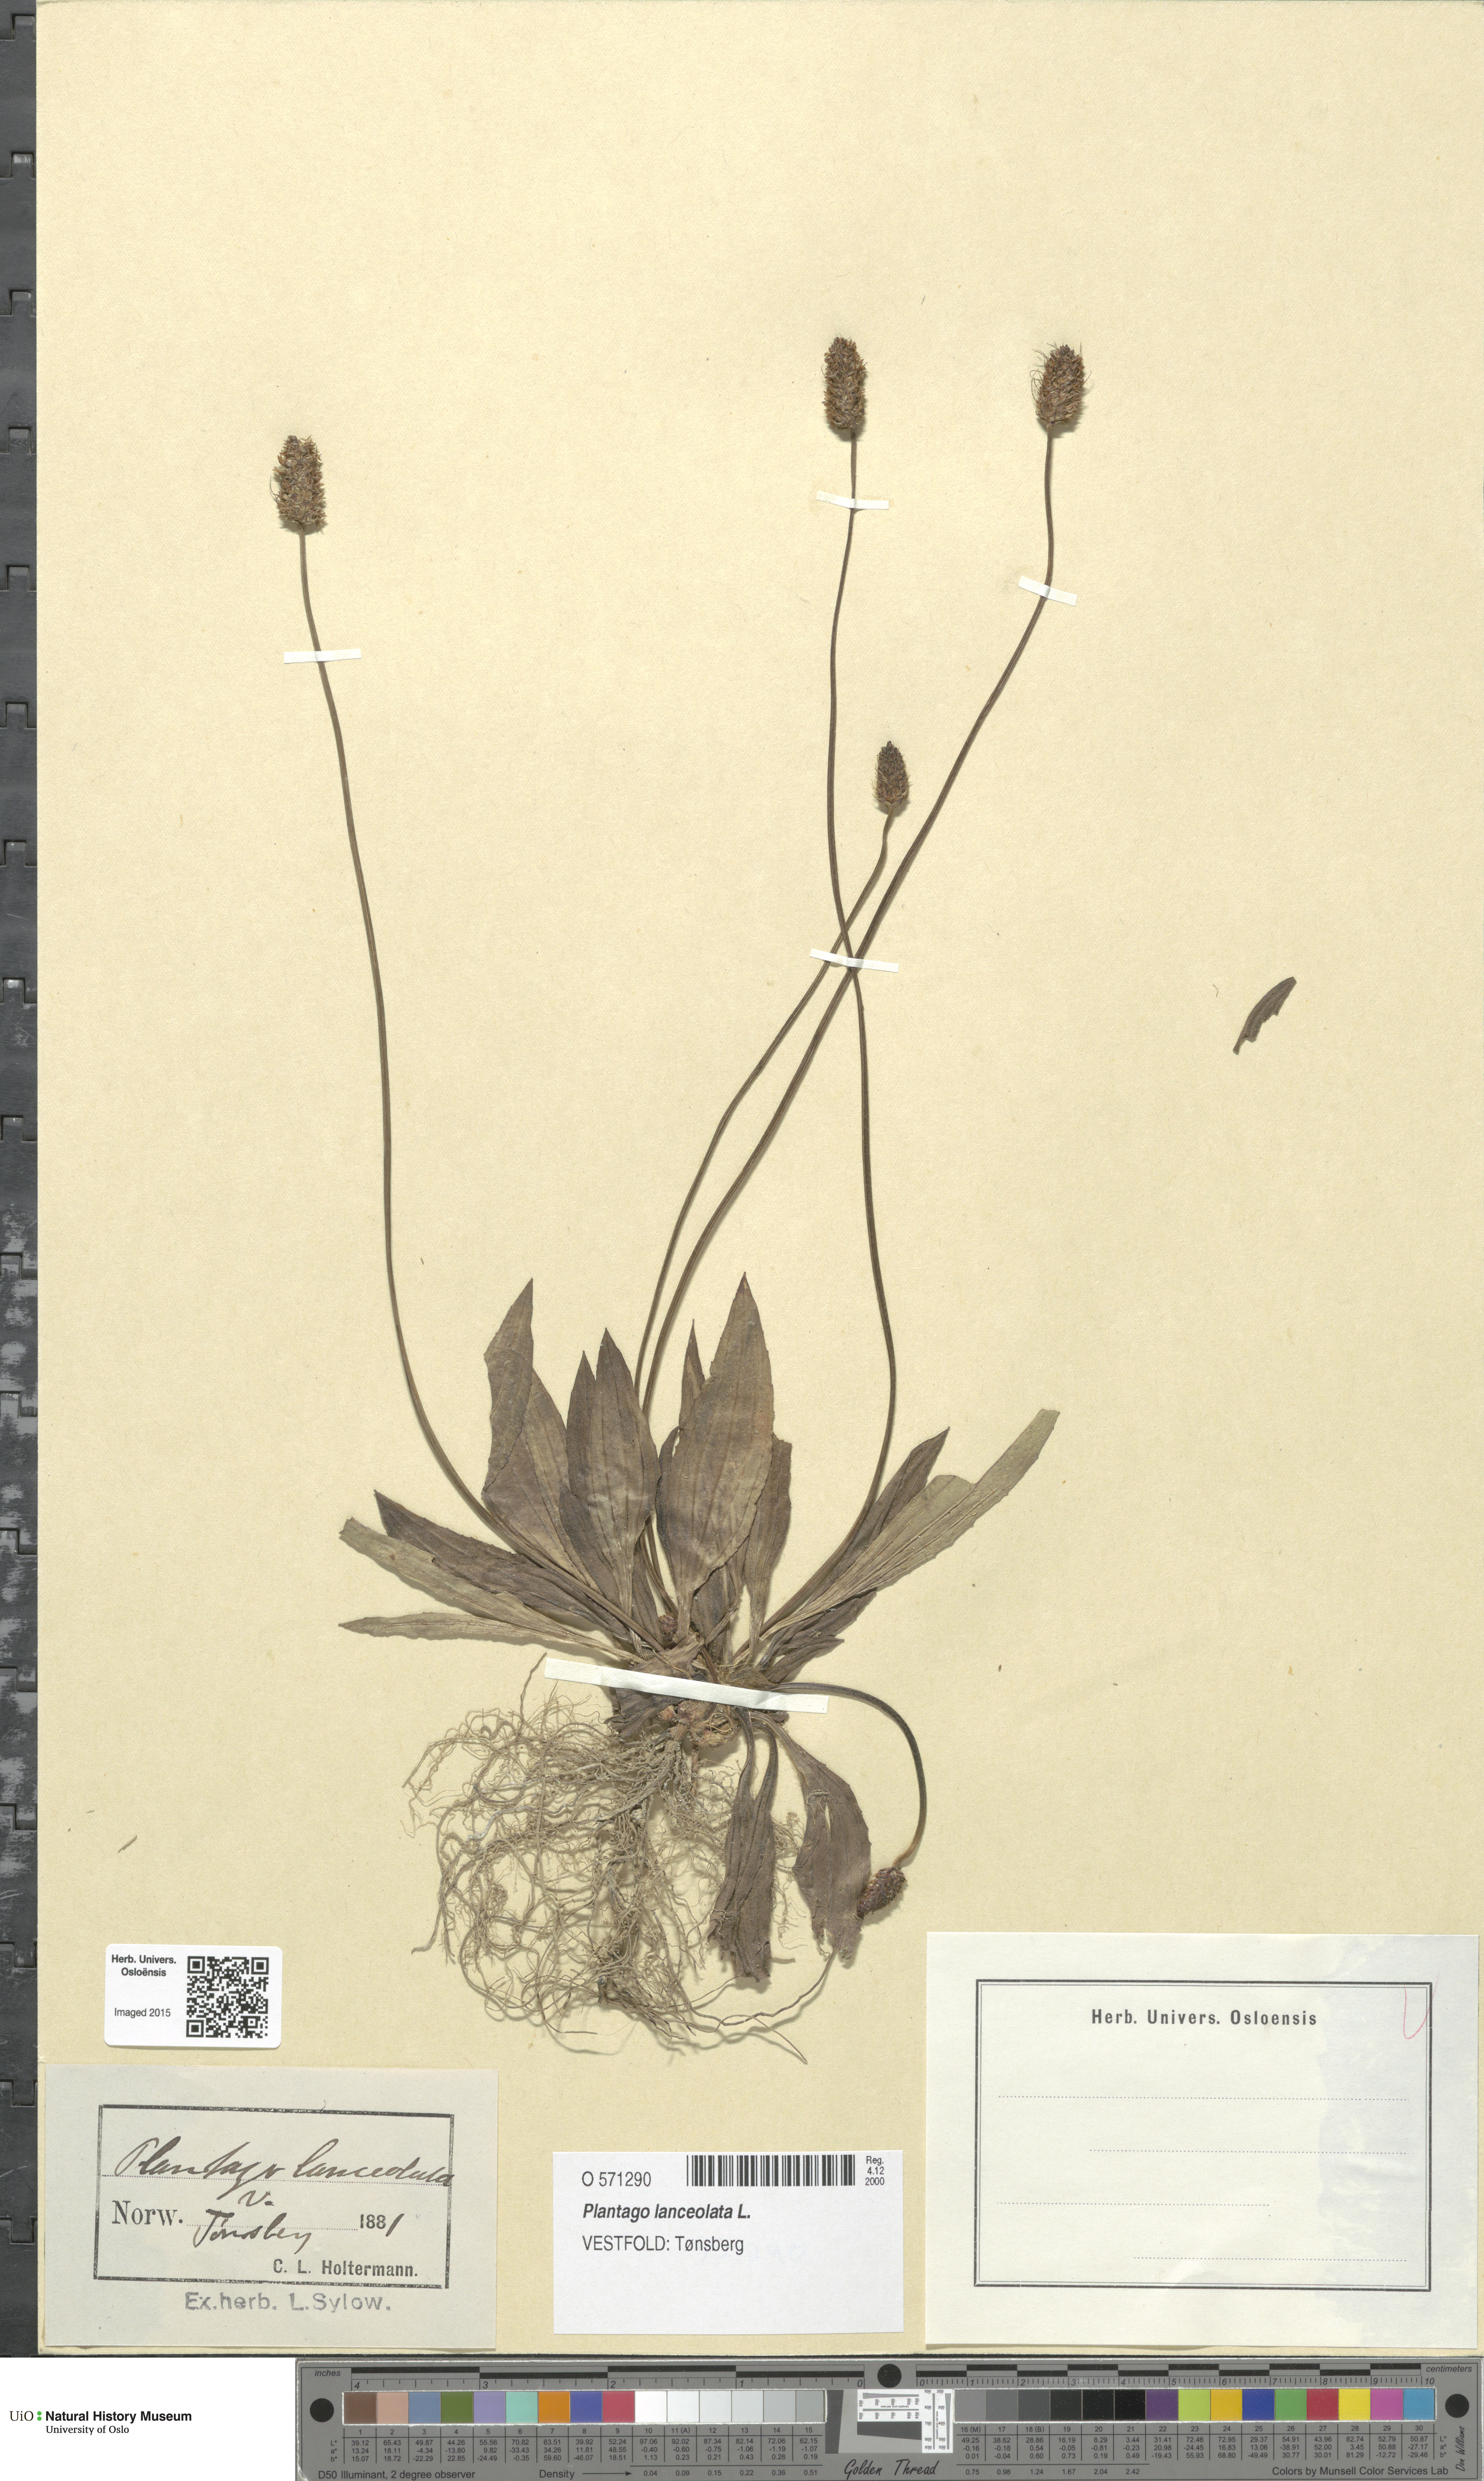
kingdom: Plantae
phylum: Tracheophyta
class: Magnoliopsida
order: Lamiales
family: Plantaginaceae
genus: Plantago
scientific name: Plantago lanceolata
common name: Ribwort plantain
